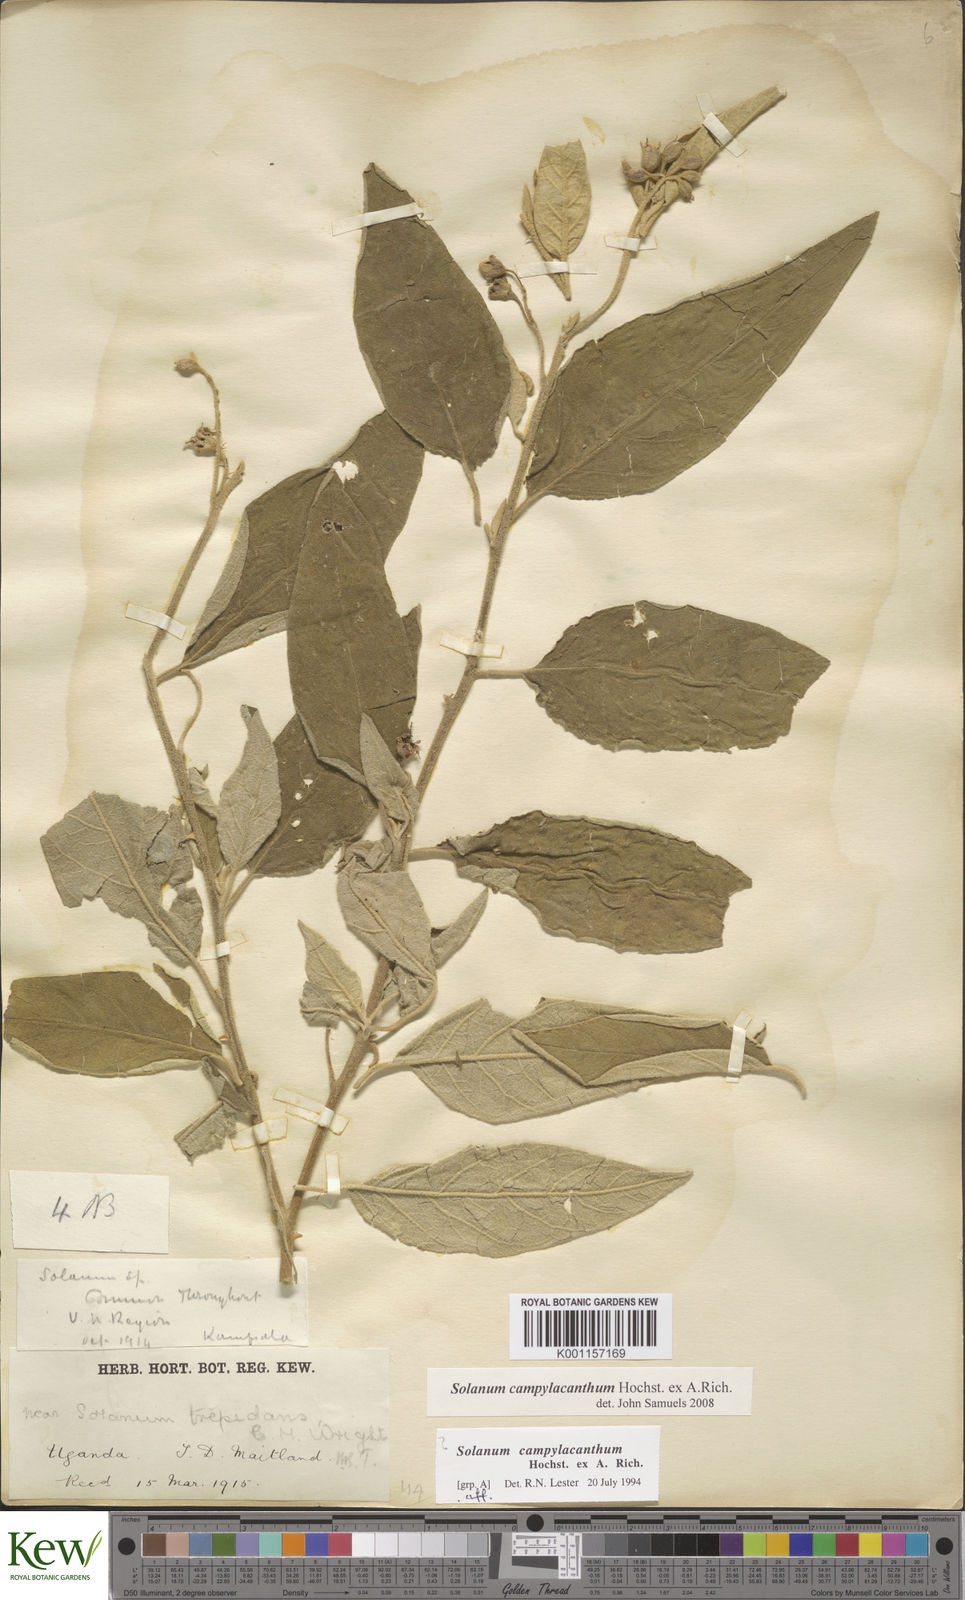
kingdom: Plantae
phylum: Tracheophyta
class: Magnoliopsida
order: Solanales
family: Solanaceae
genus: Solanum
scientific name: Solanum campylacanthum
